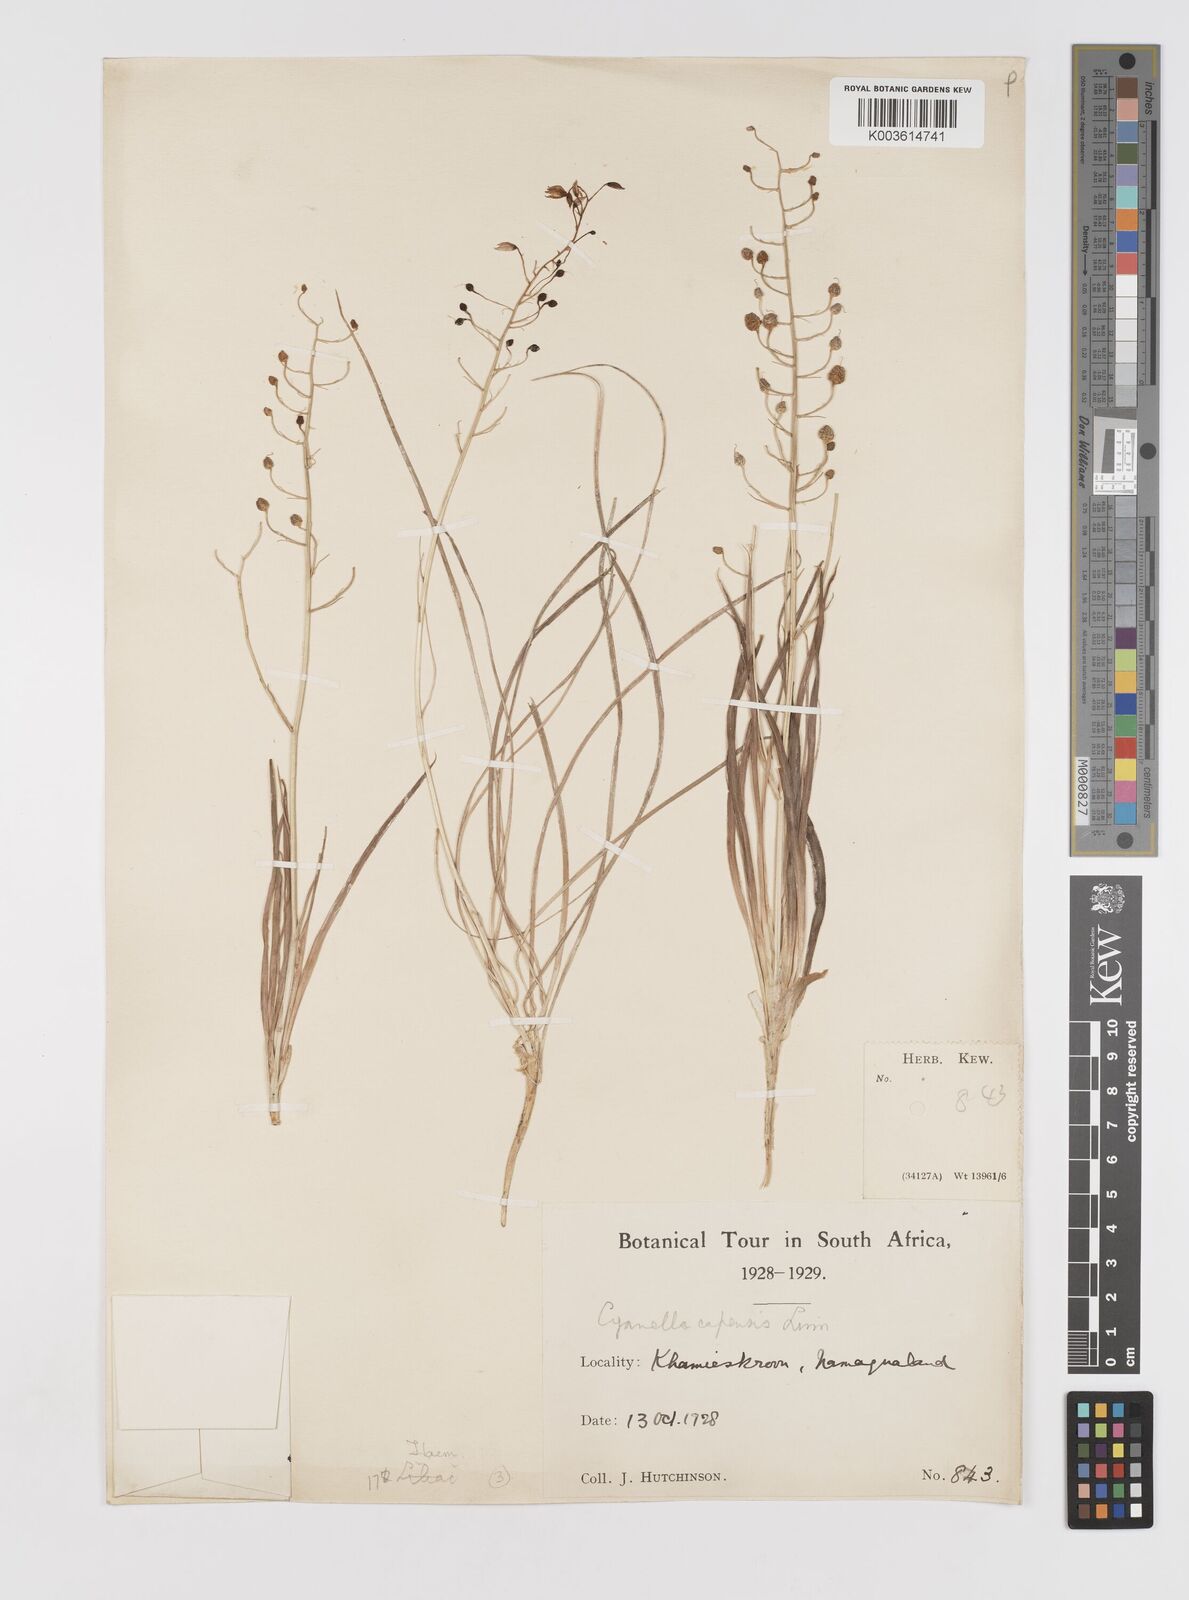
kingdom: Plantae
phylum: Tracheophyta
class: Liliopsida
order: Asparagales
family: Tecophilaeaceae
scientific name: Tecophilaeaceae
